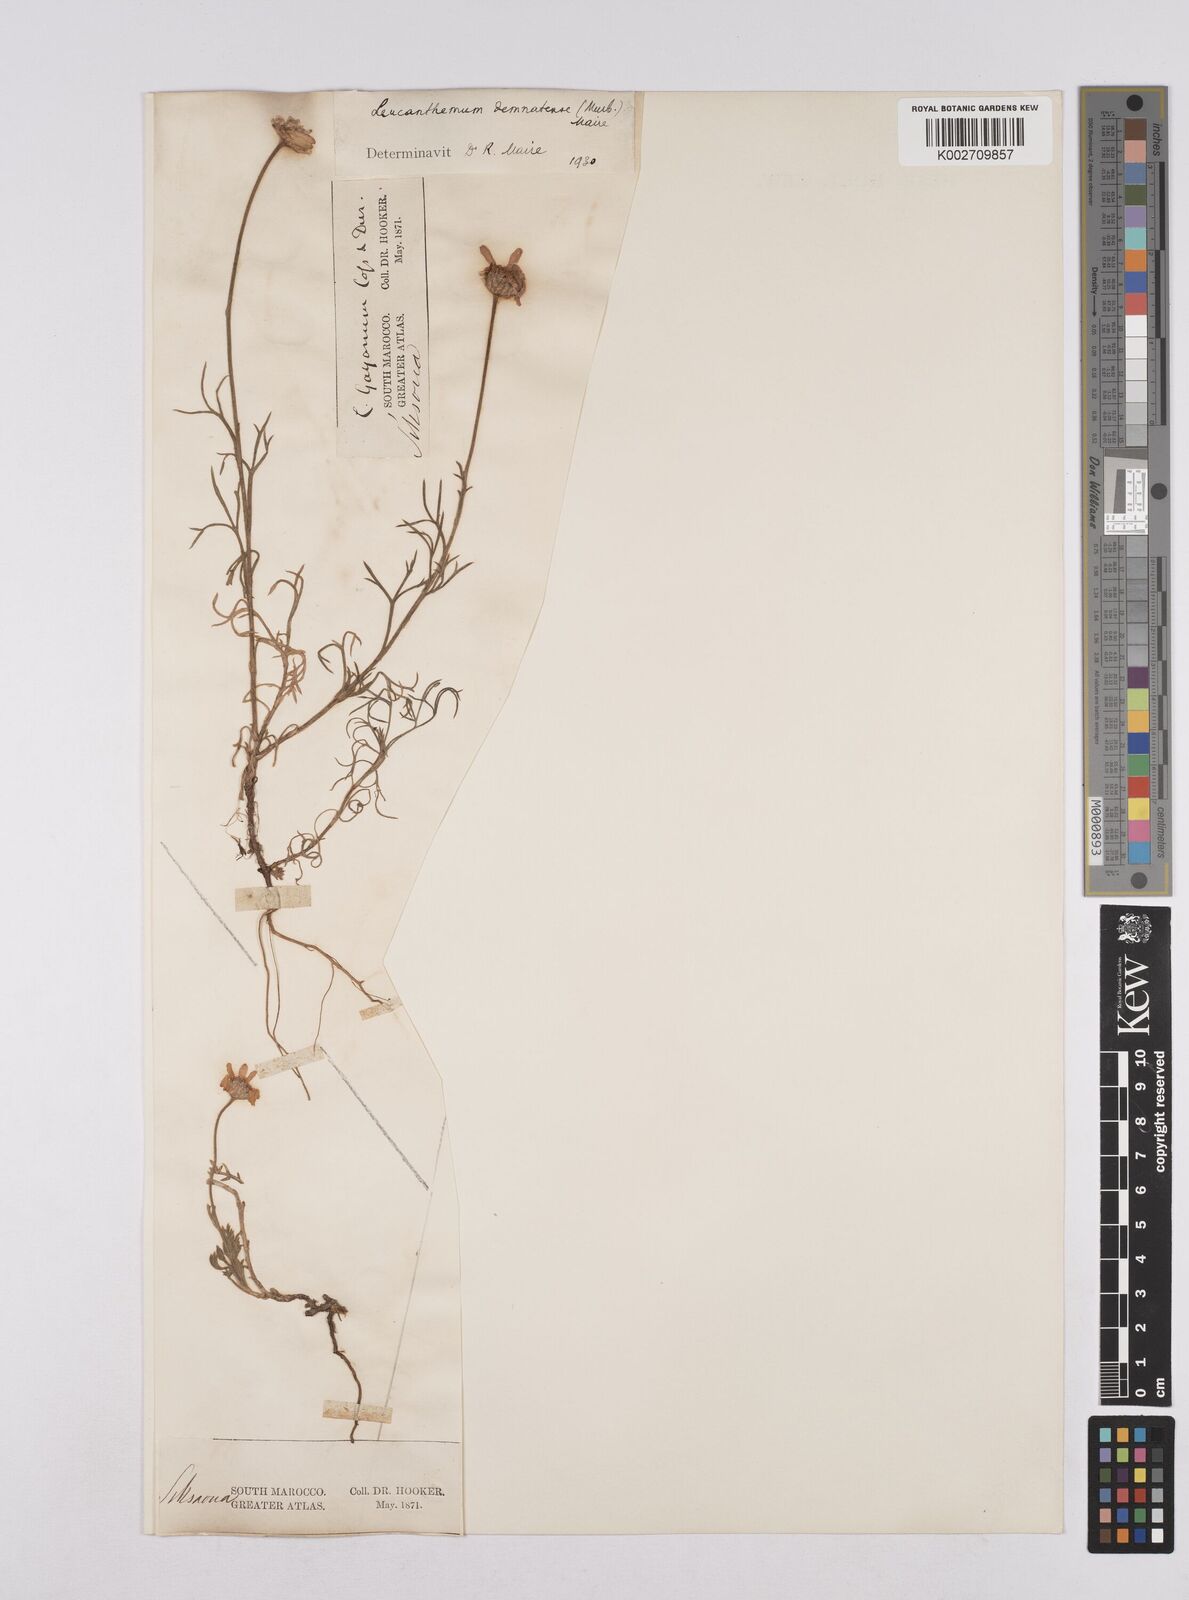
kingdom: Plantae
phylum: Tracheophyta
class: Magnoliopsida
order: Asterales
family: Asteraceae
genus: Rhodanthemum
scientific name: Rhodanthemum gayanum
